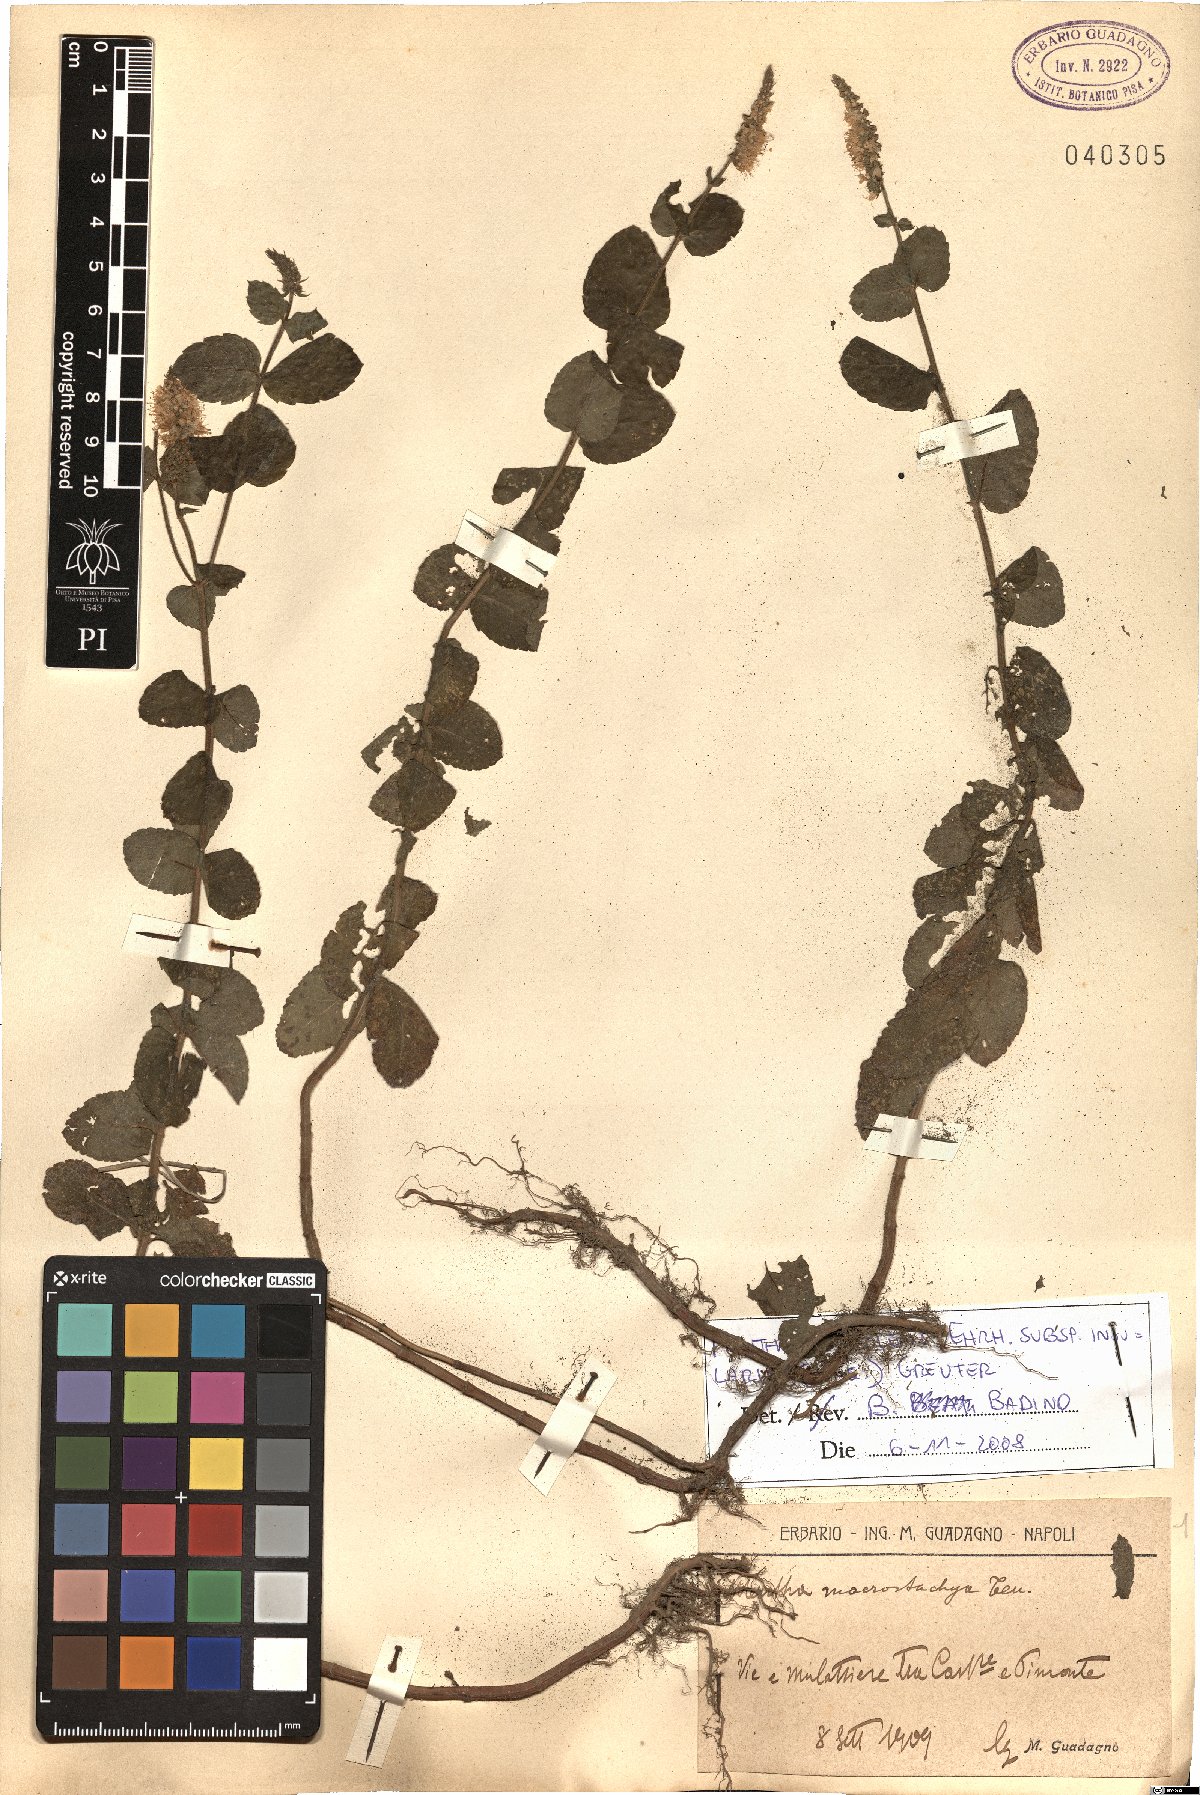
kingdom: Plantae
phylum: Tracheophyta
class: Magnoliopsida
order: Lamiales
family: Lamiaceae
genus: Mentha
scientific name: Mentha suaveolens
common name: Apple mint
